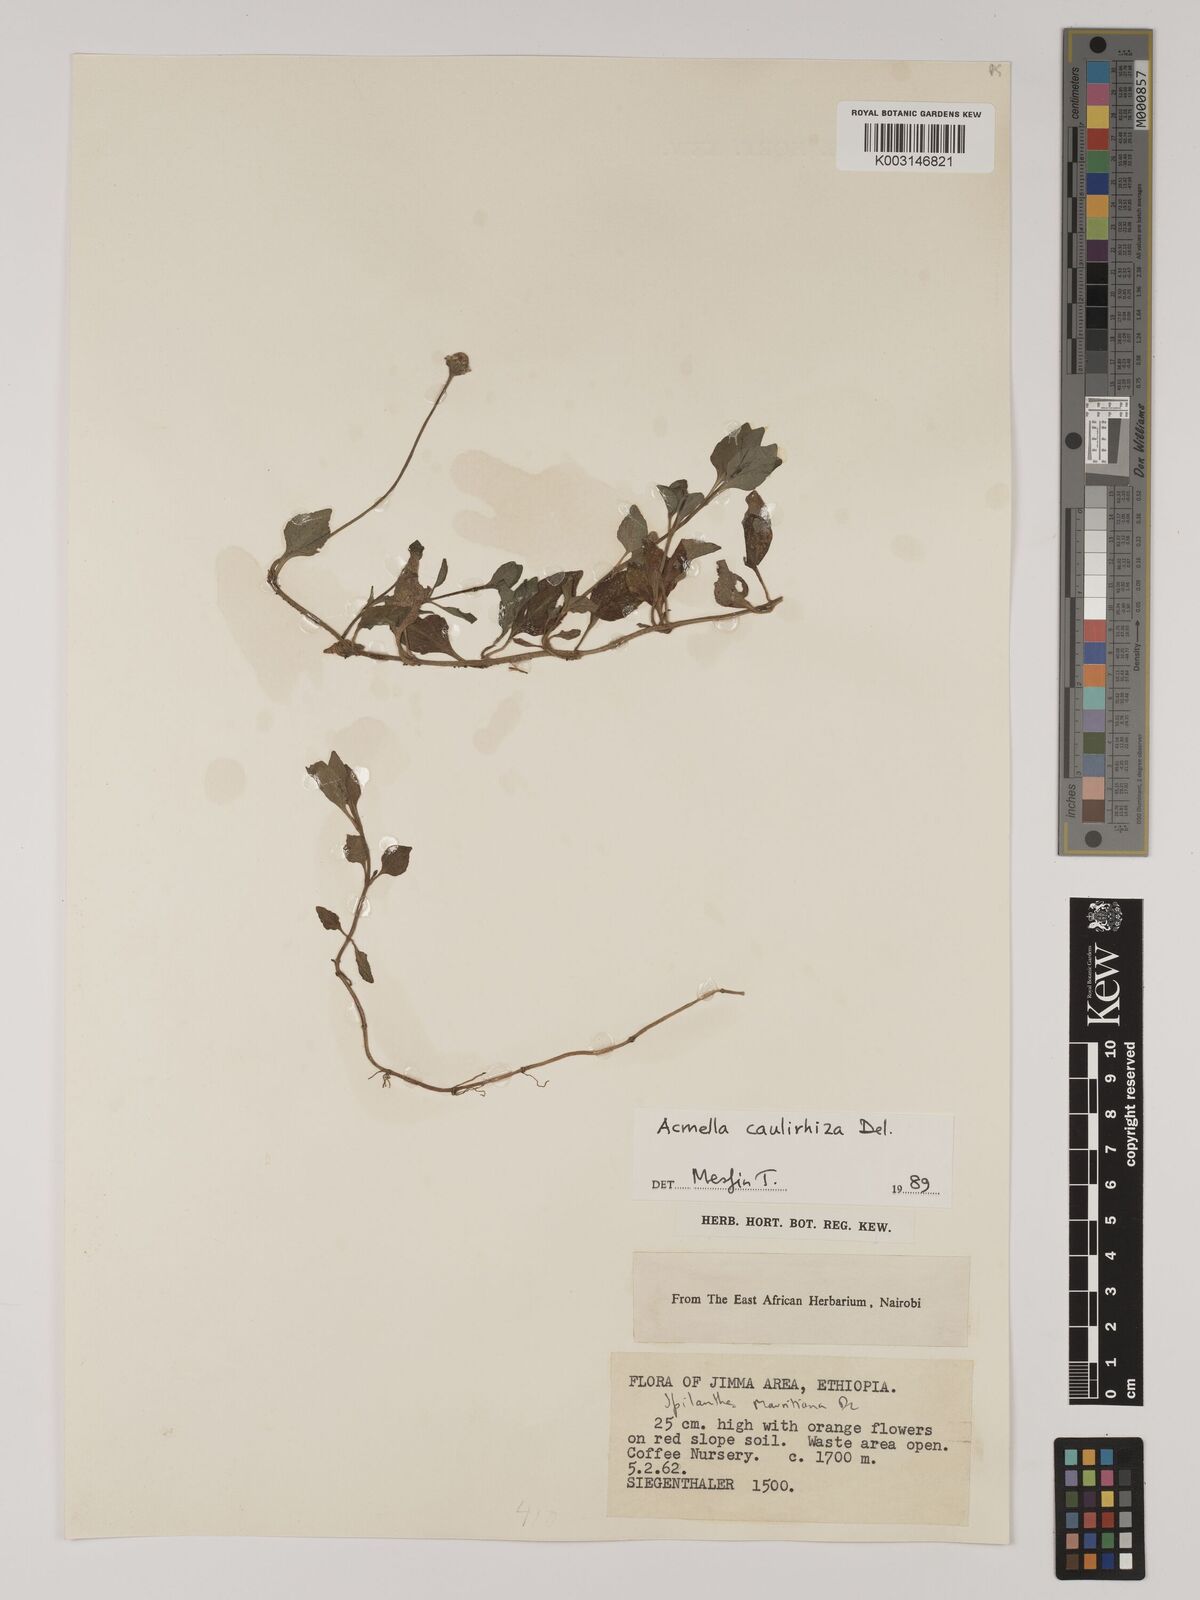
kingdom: Plantae
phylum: Tracheophyta
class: Magnoliopsida
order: Asterales
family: Asteraceae
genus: Blainvillea
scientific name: Blainvillea acmella
